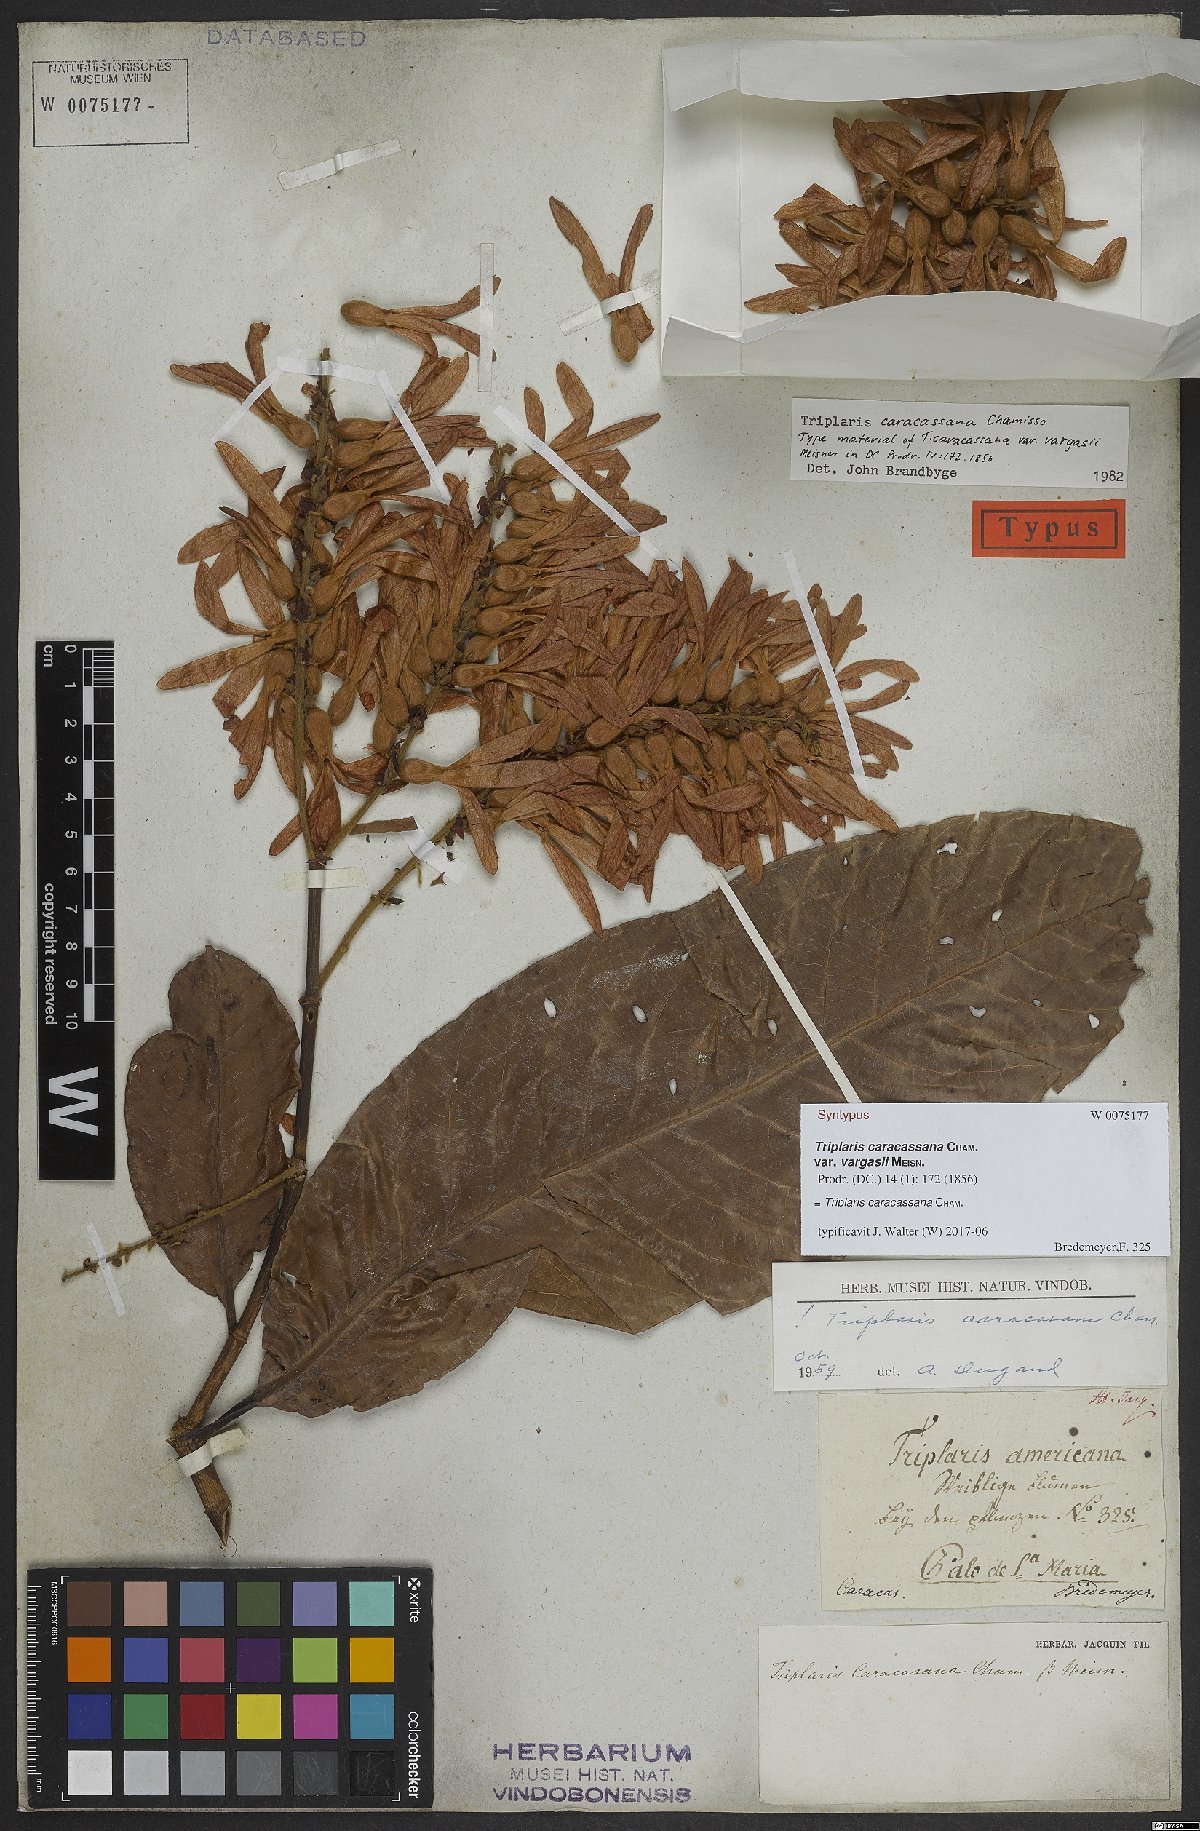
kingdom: Plantae
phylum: Tracheophyta
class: Magnoliopsida
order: Caryophyllales
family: Polygonaceae
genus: Triplaris
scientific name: Triplaris caracasana
